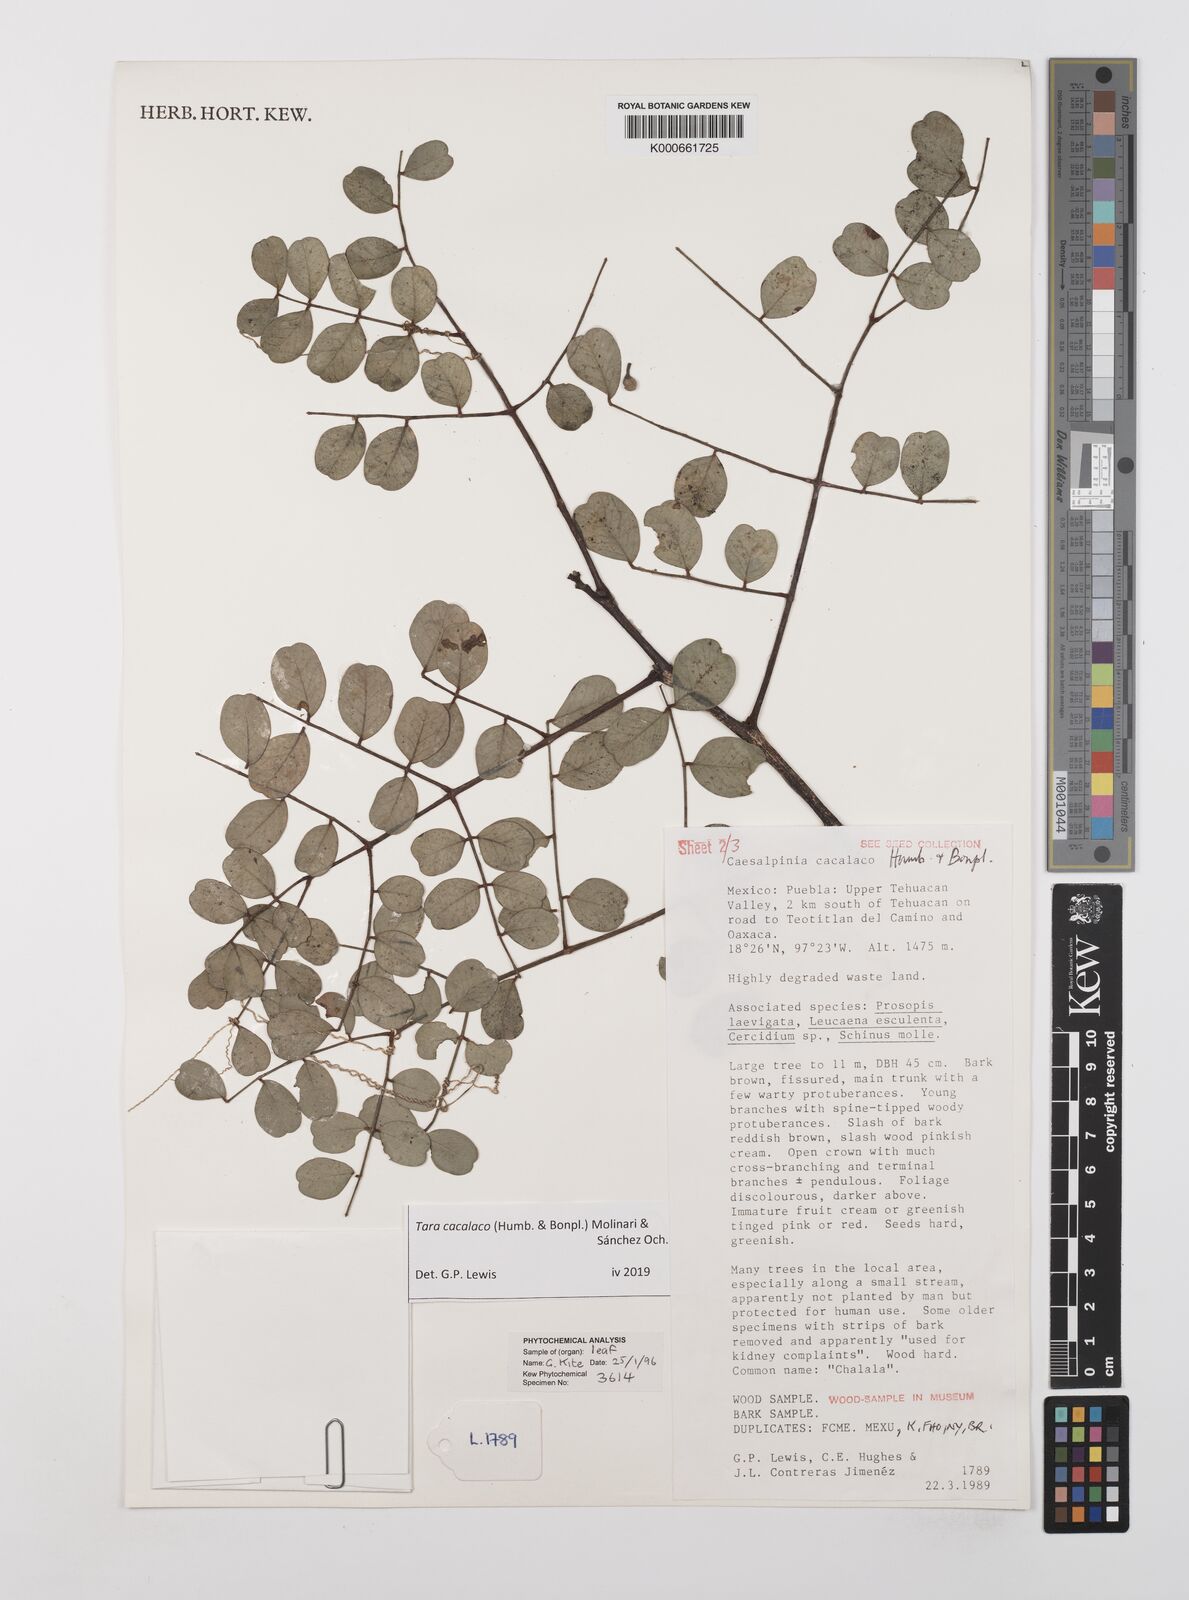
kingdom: Plantae
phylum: Tracheophyta
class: Magnoliopsida
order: Fabales
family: Fabaceae
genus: Tara
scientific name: Tara cacalaco
